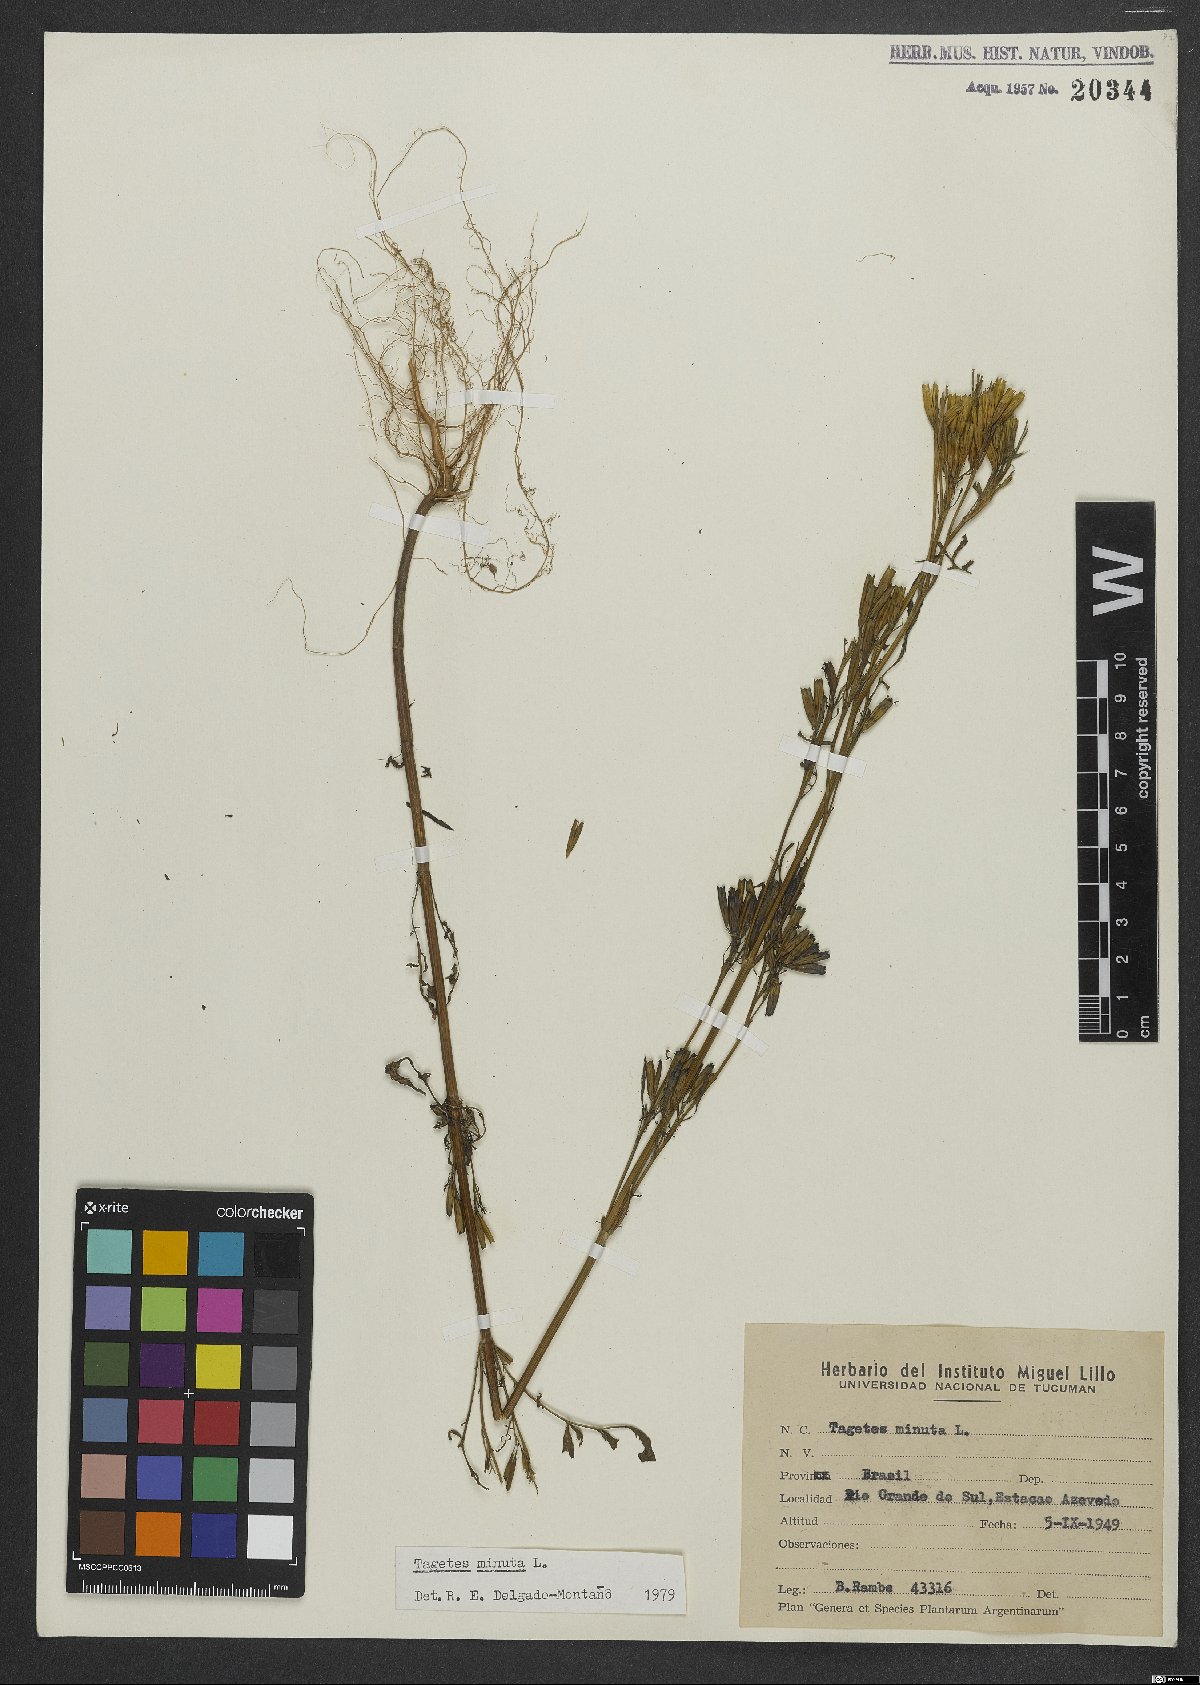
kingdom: Plantae
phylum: Tracheophyta
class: Magnoliopsida
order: Asterales
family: Asteraceae
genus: Tagetes
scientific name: Tagetes minuta
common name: Muster john henry
